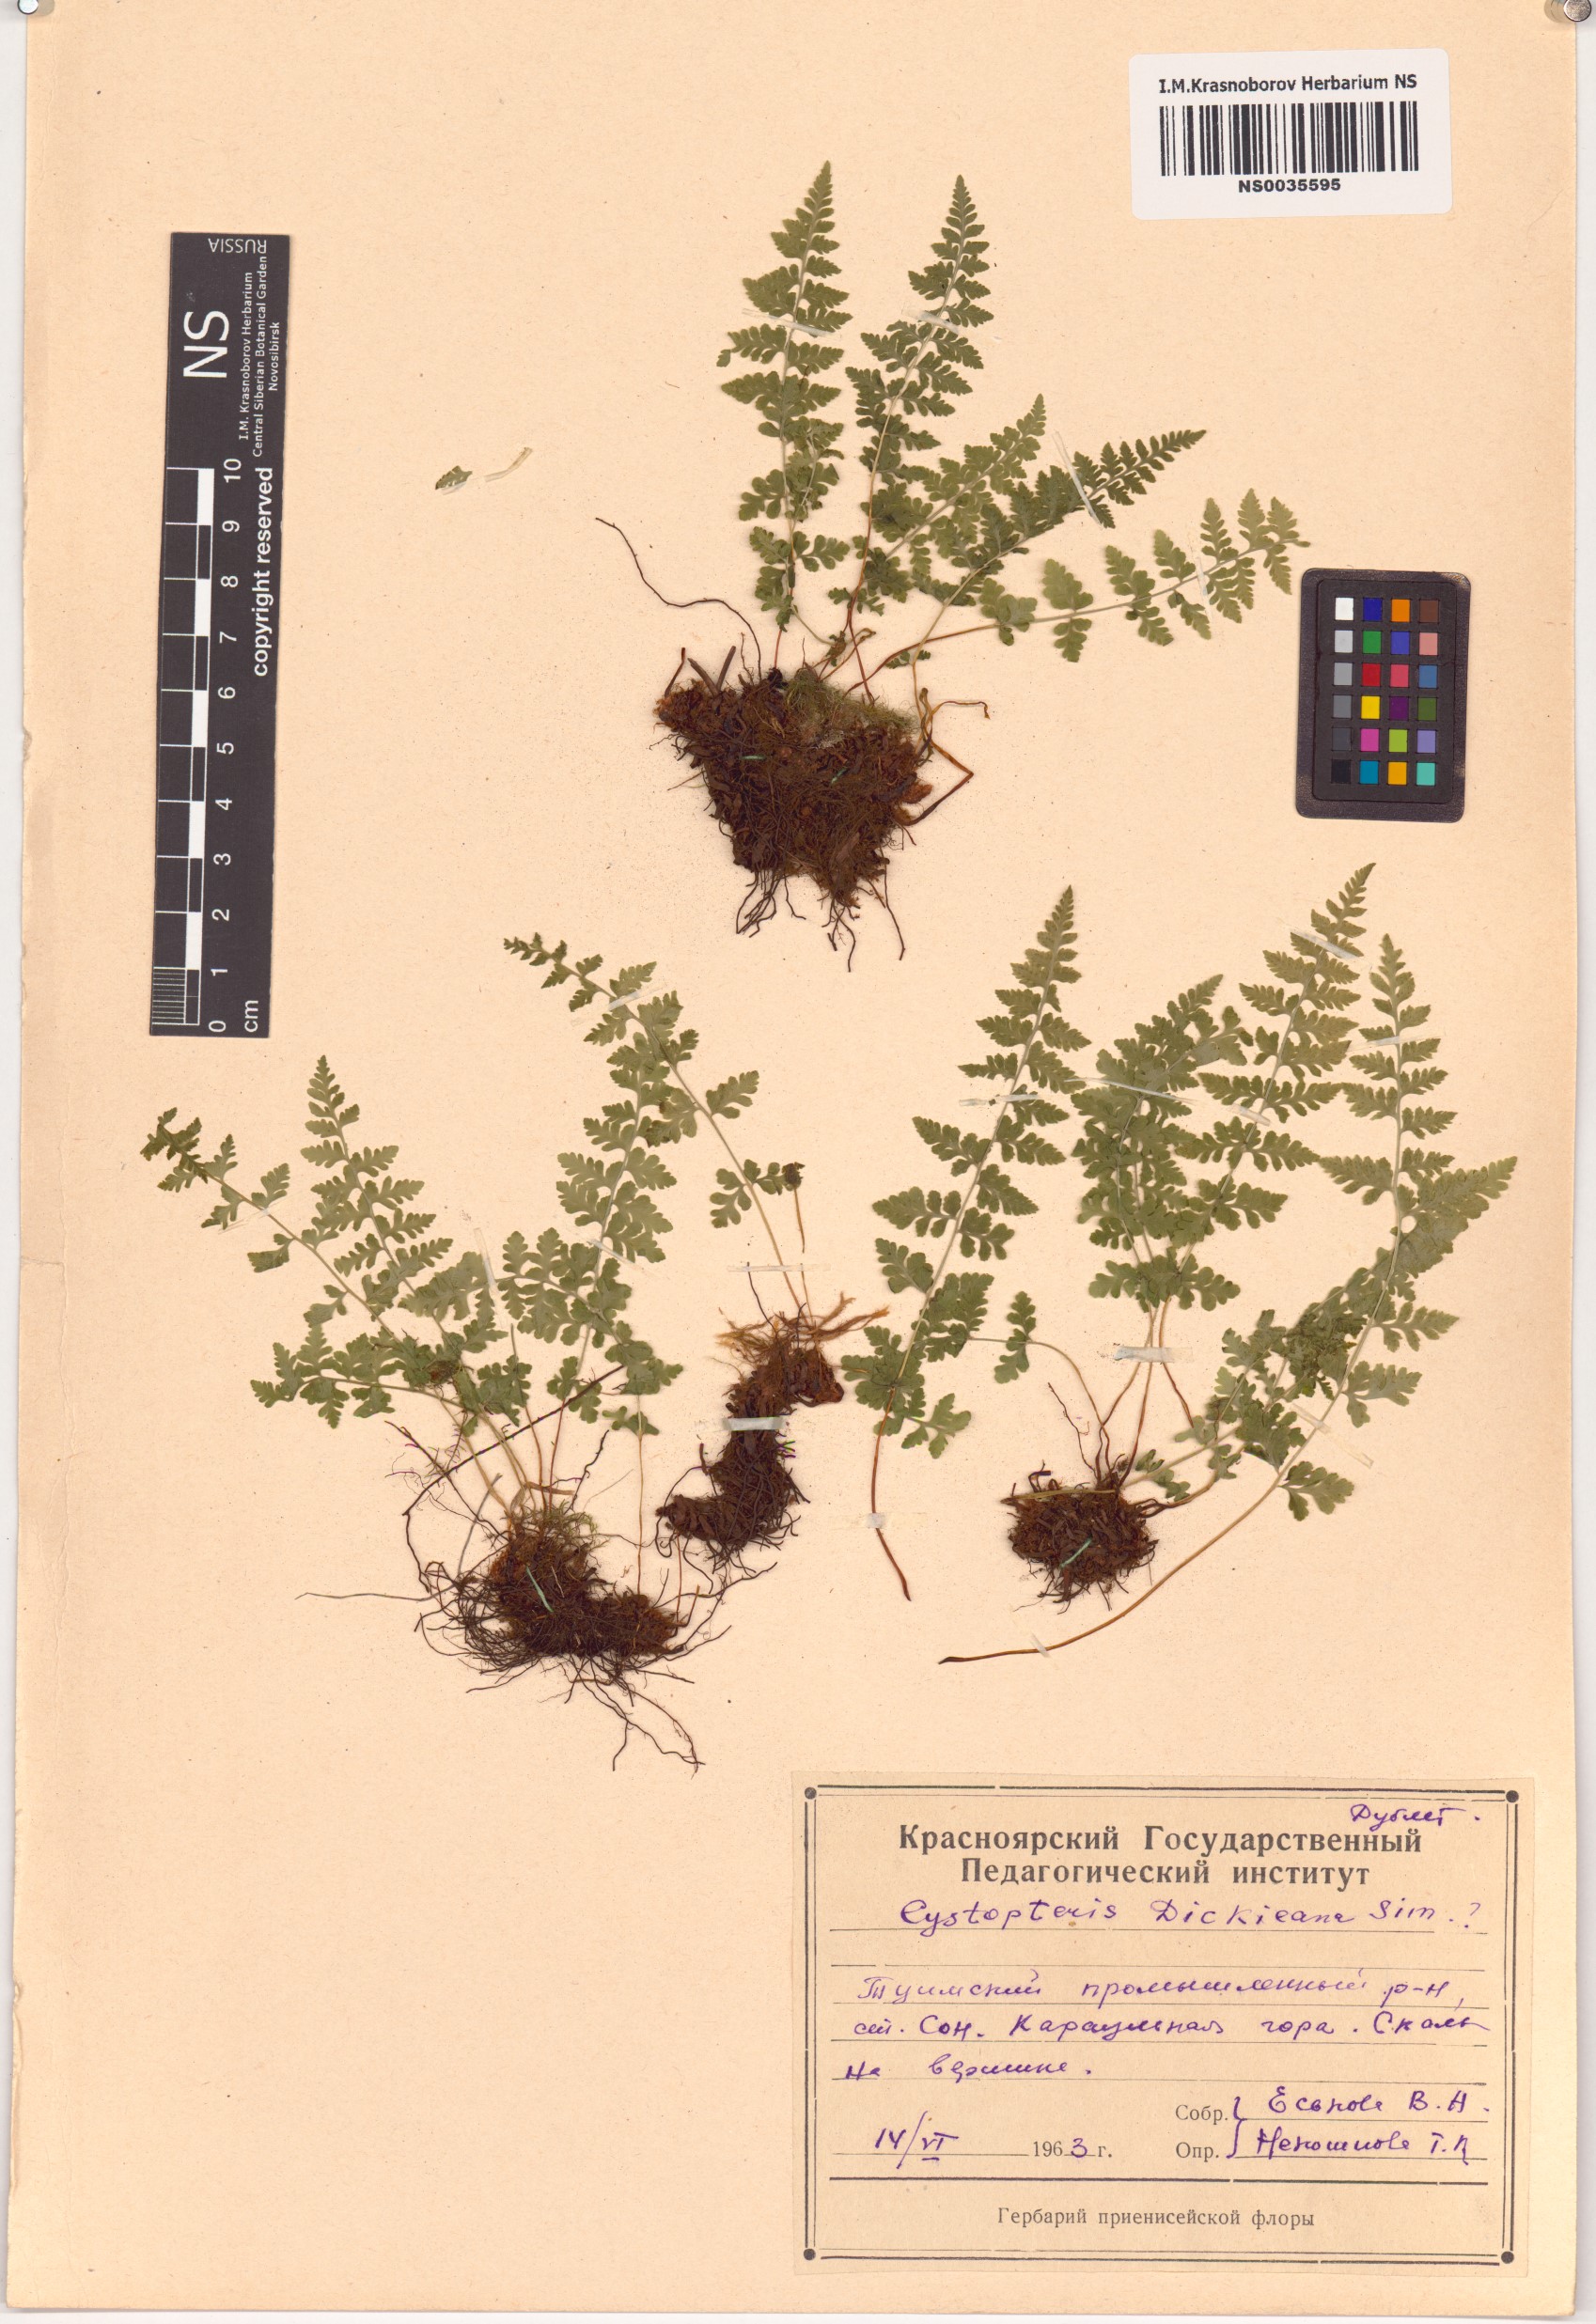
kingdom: Plantae
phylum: Tracheophyta
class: Polypodiopsida
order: Polypodiales
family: Cystopteridaceae
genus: Cystopteris
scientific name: Cystopteris dickieana
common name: Dickie's bladder-fern
